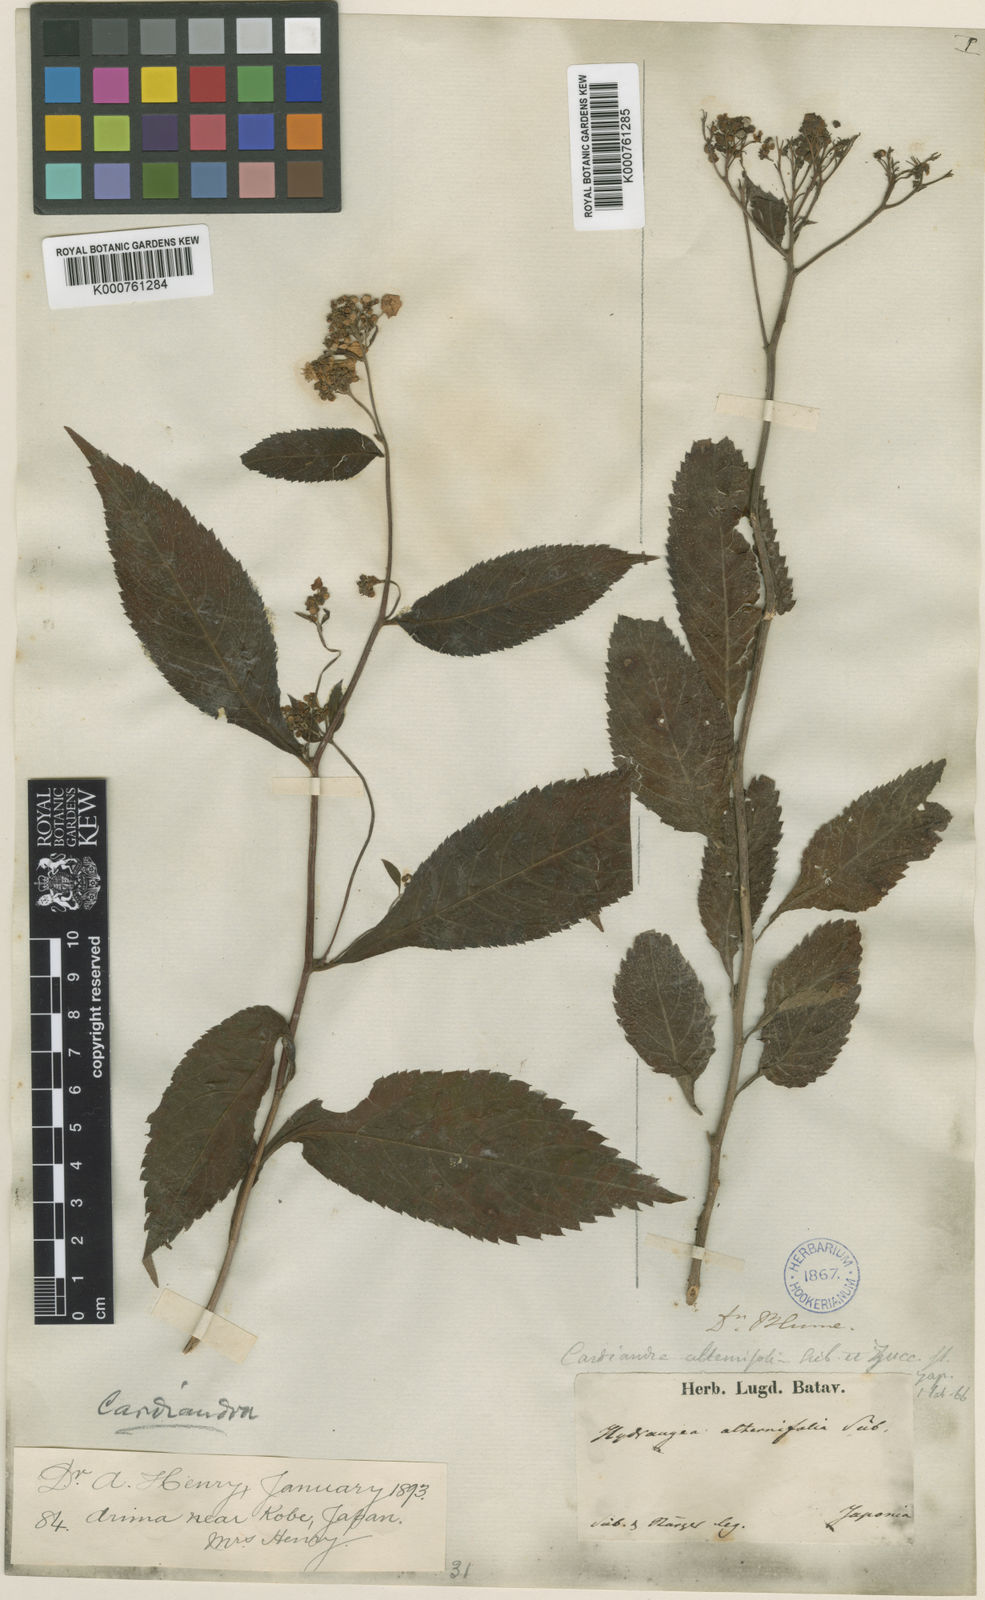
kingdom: Plantae
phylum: Tracheophyta
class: Magnoliopsida
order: Cornales
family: Hydrangeaceae
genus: Hydrangea
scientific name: Hydrangea alternifolia
